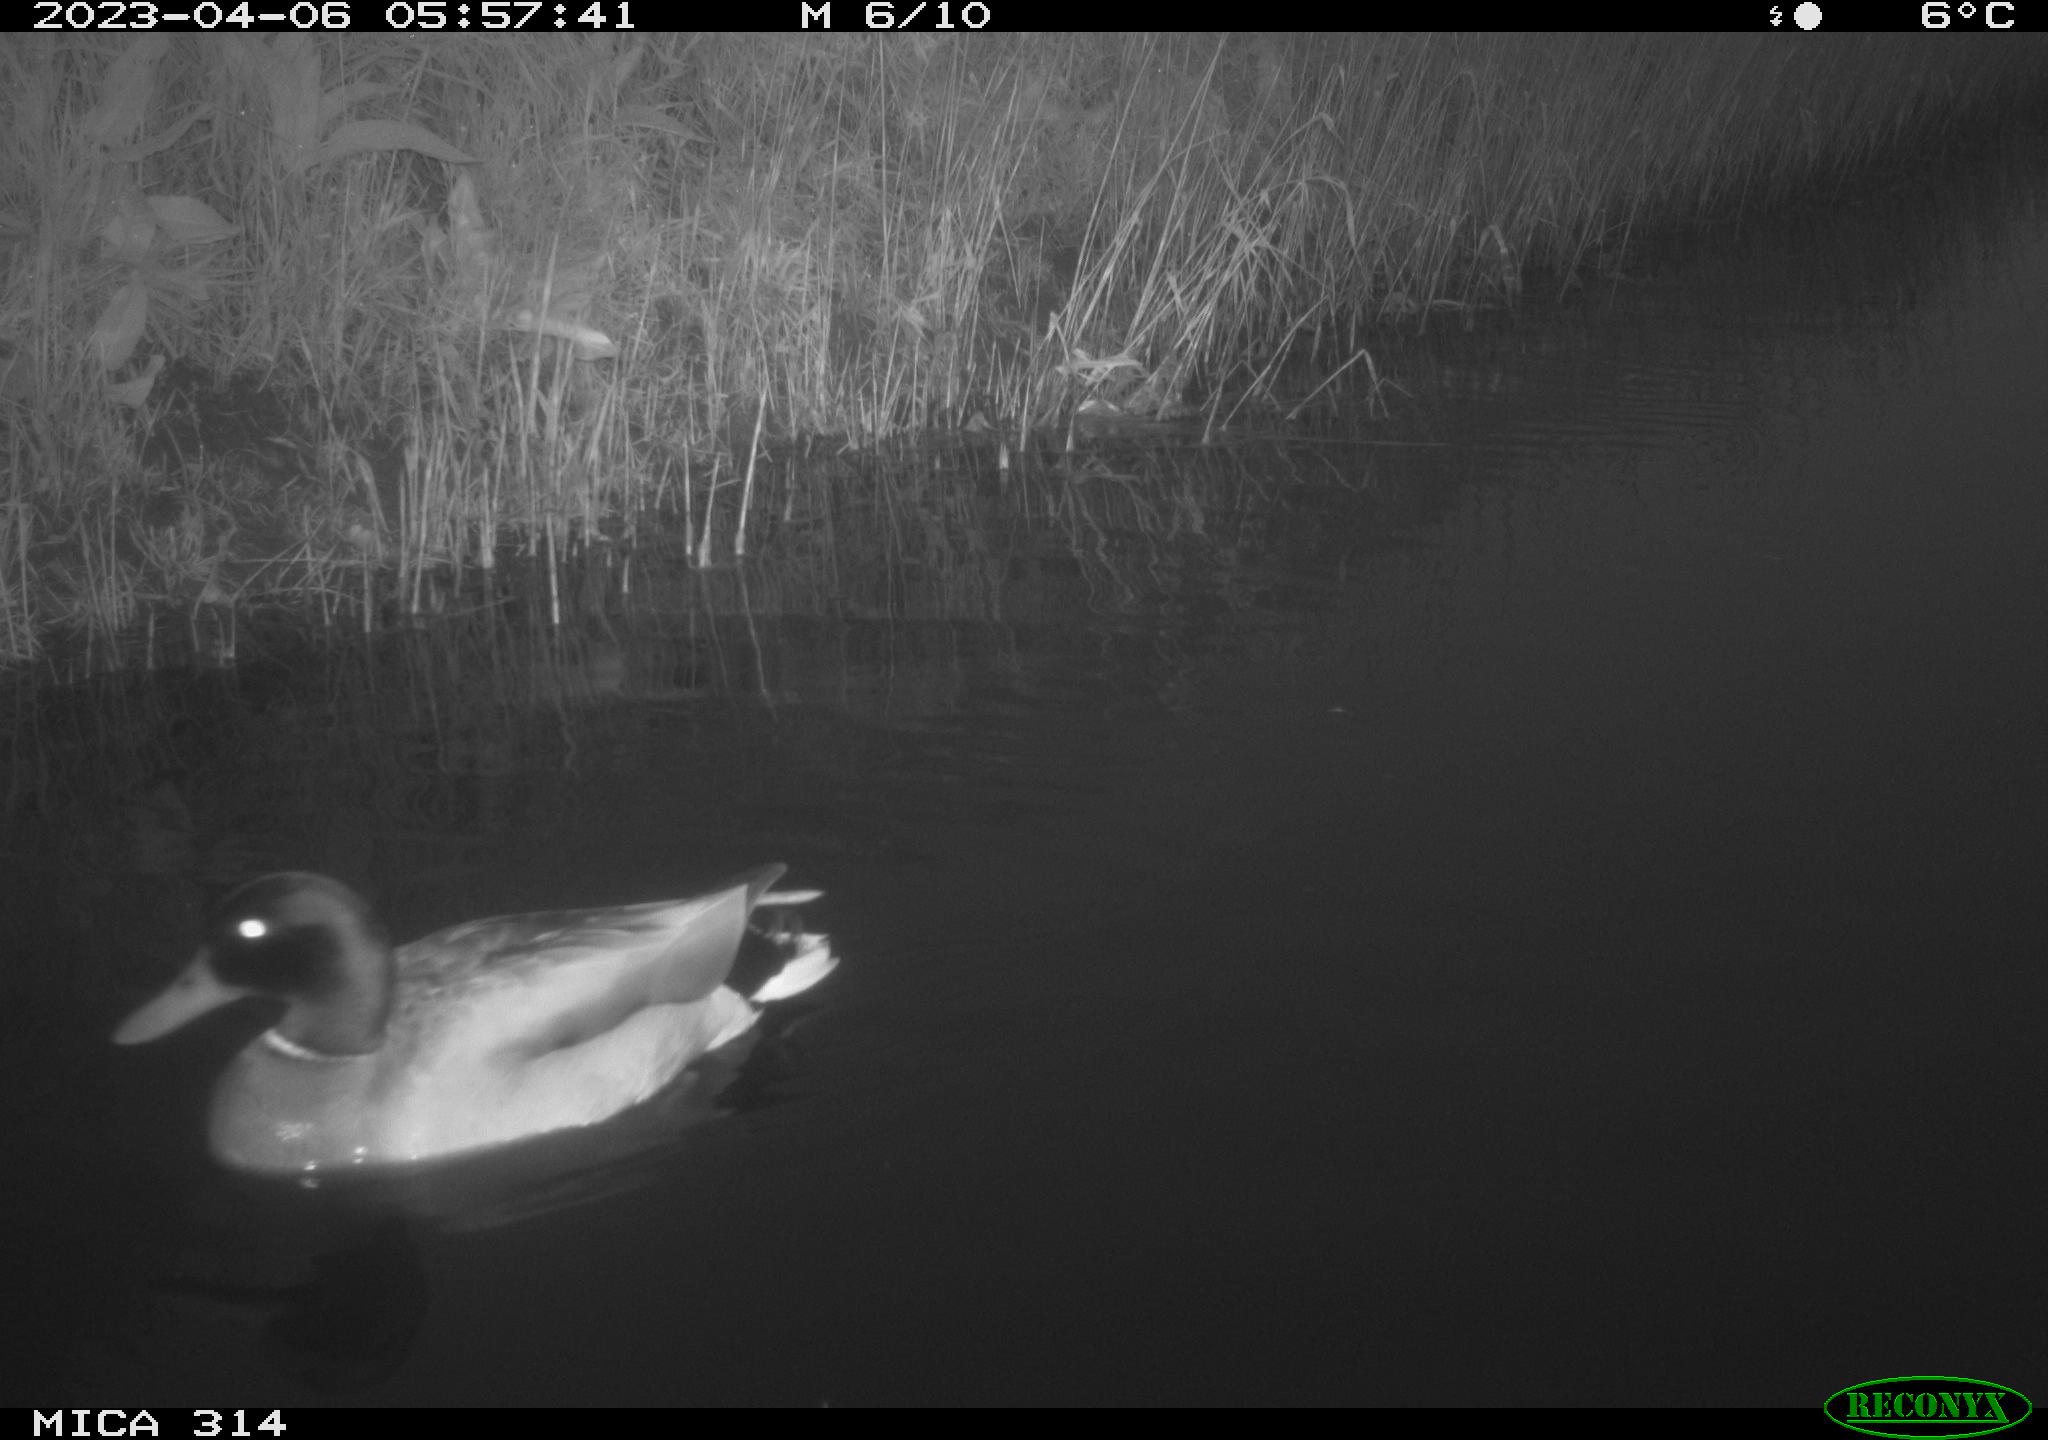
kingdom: Animalia
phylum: Chordata
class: Aves
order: Gruiformes
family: Rallidae
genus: Gallinula
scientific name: Gallinula chloropus
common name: Common moorhen
